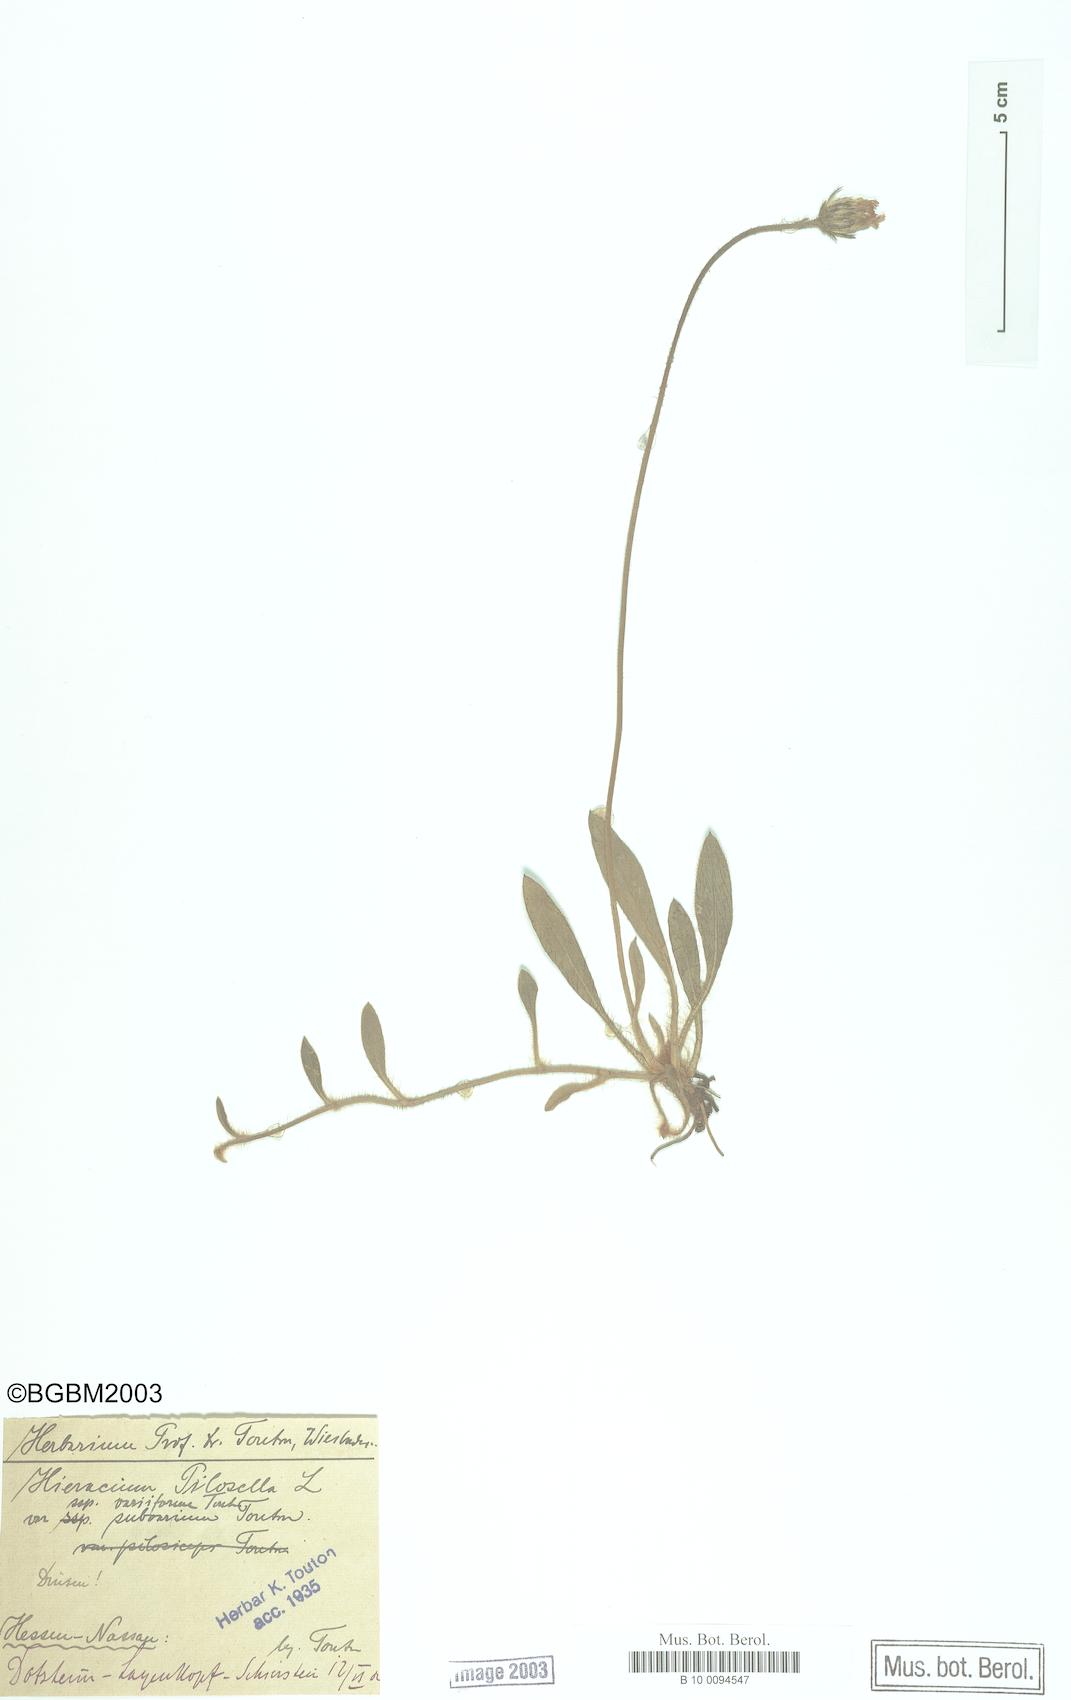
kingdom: Plantae
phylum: Tracheophyta
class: Magnoliopsida
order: Asterales
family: Asteraceae
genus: Pilosella
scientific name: Pilosella officinarum
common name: Mouse-ear hawkweed
